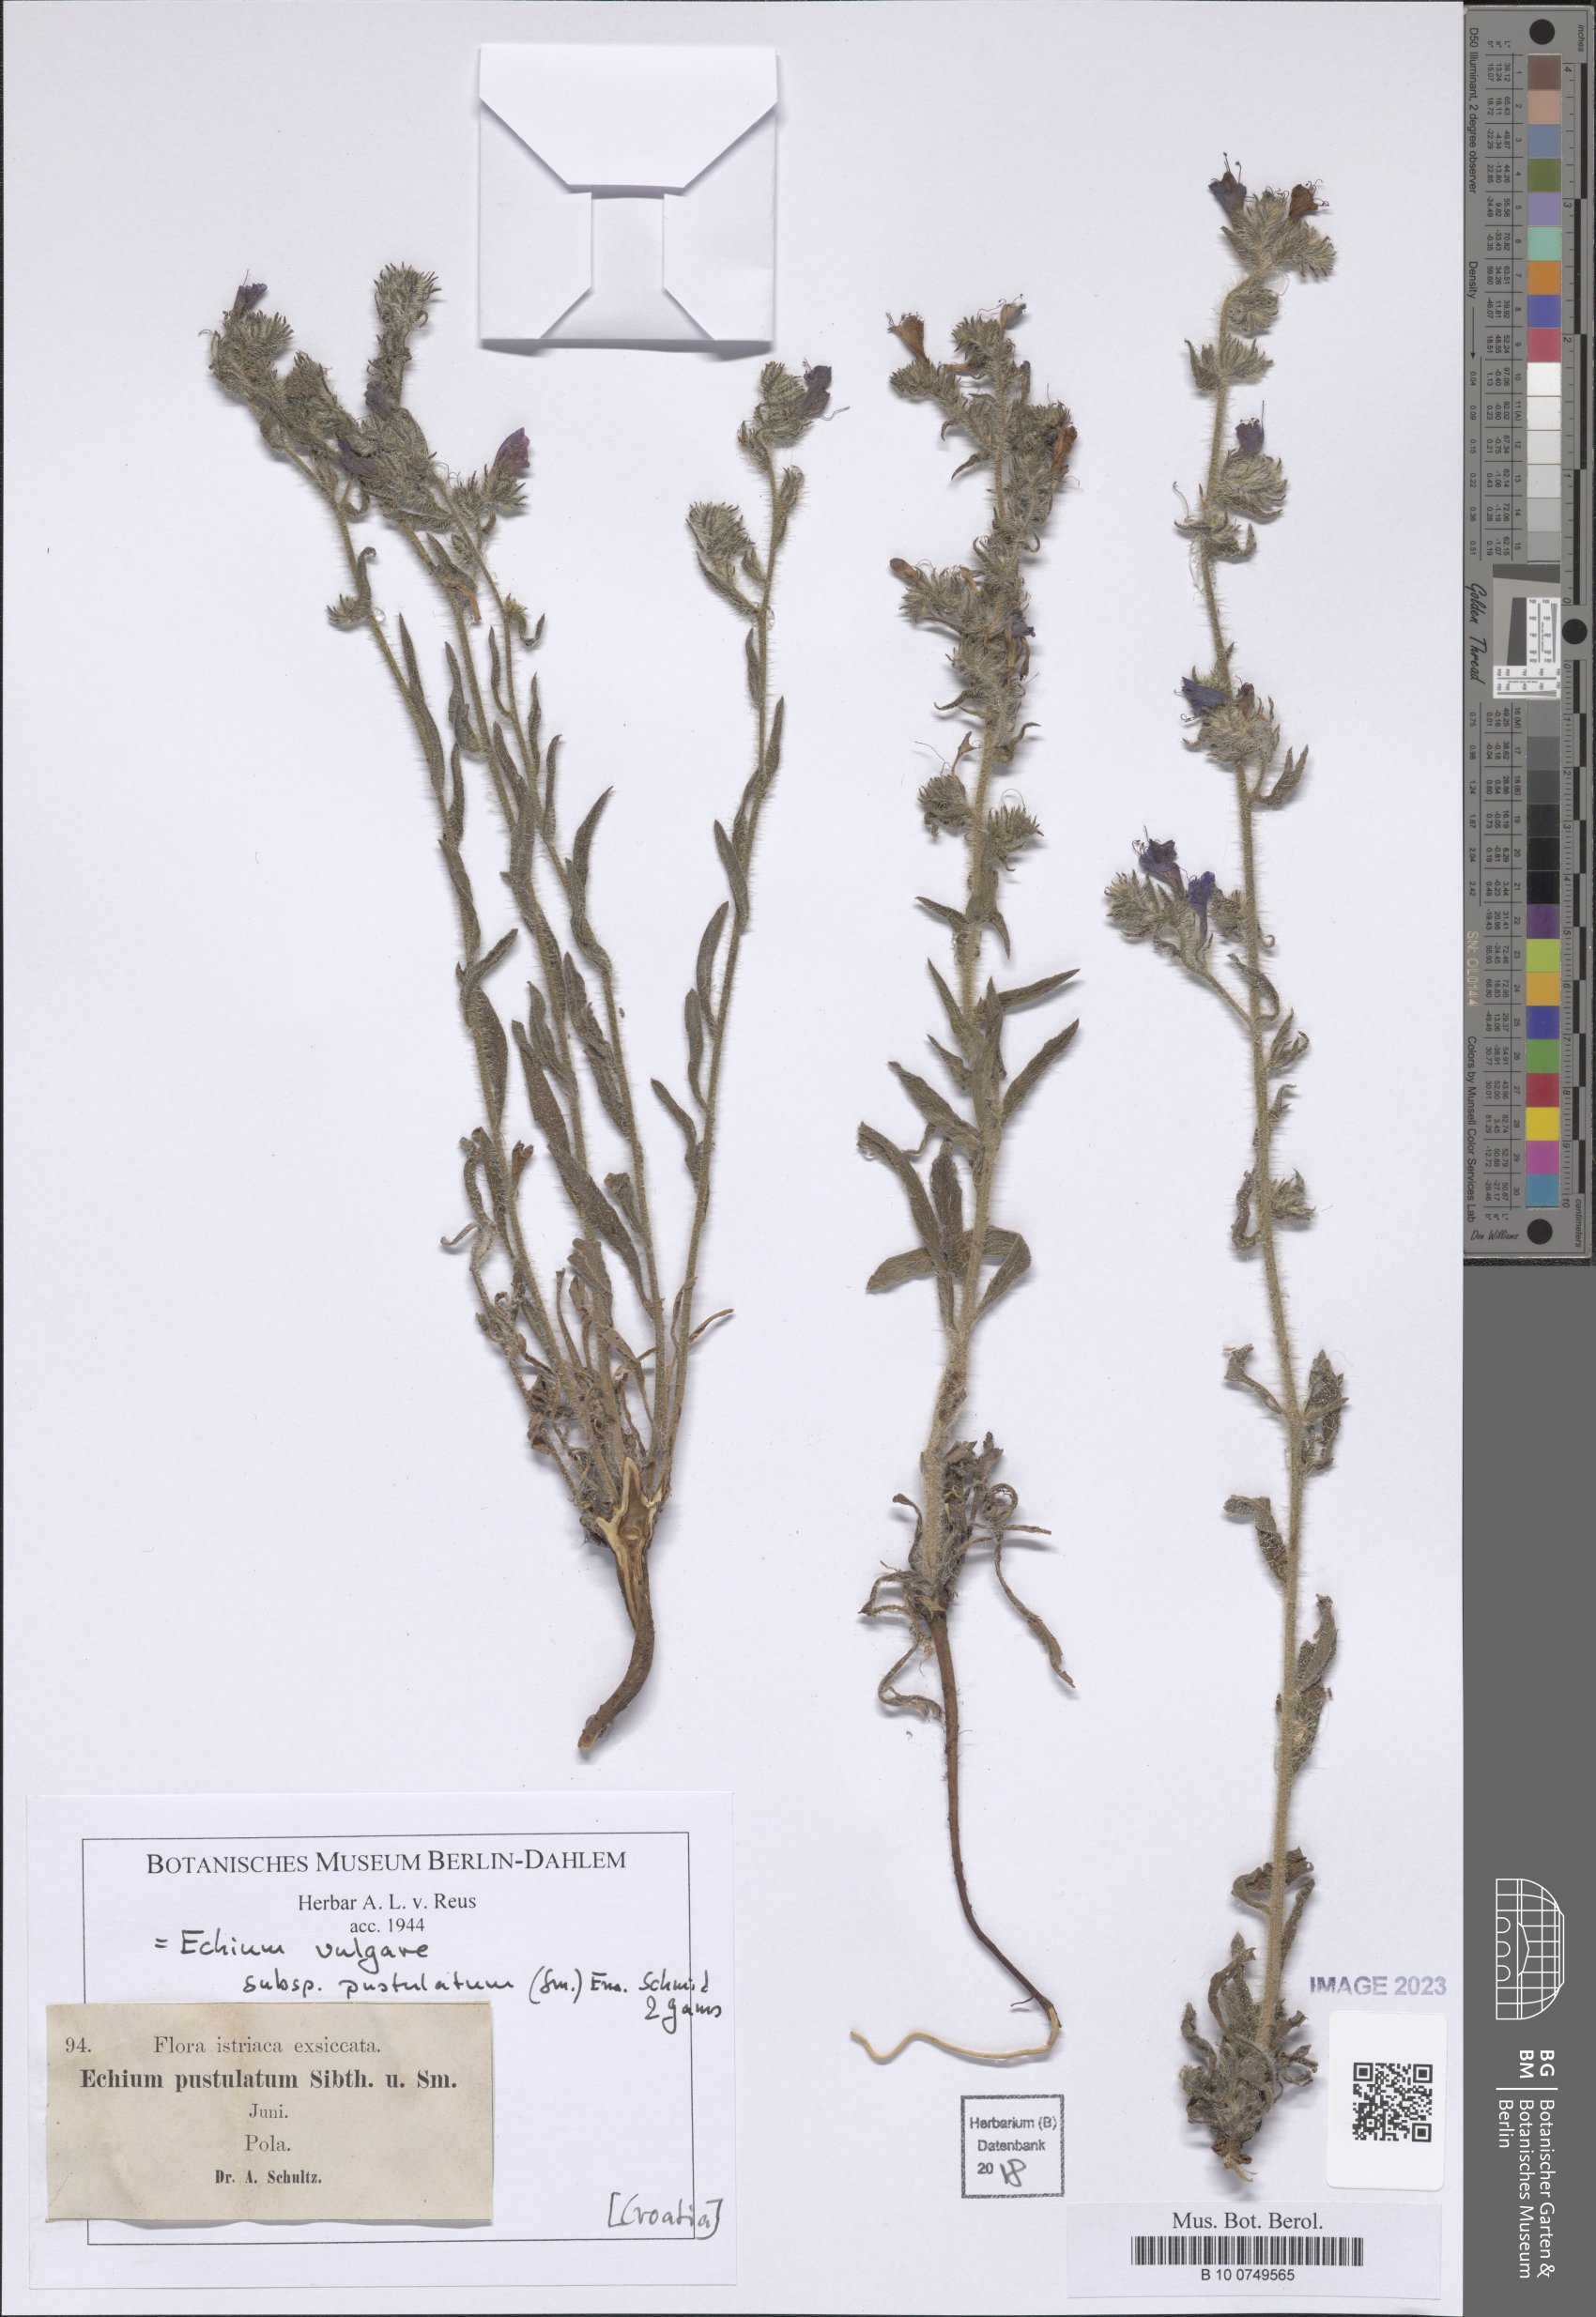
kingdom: Plantae
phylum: Tracheophyta
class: Magnoliopsida
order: Boraginales
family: Boraginaceae
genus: Echium
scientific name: Echium vulgare
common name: Common viper's bugloss
